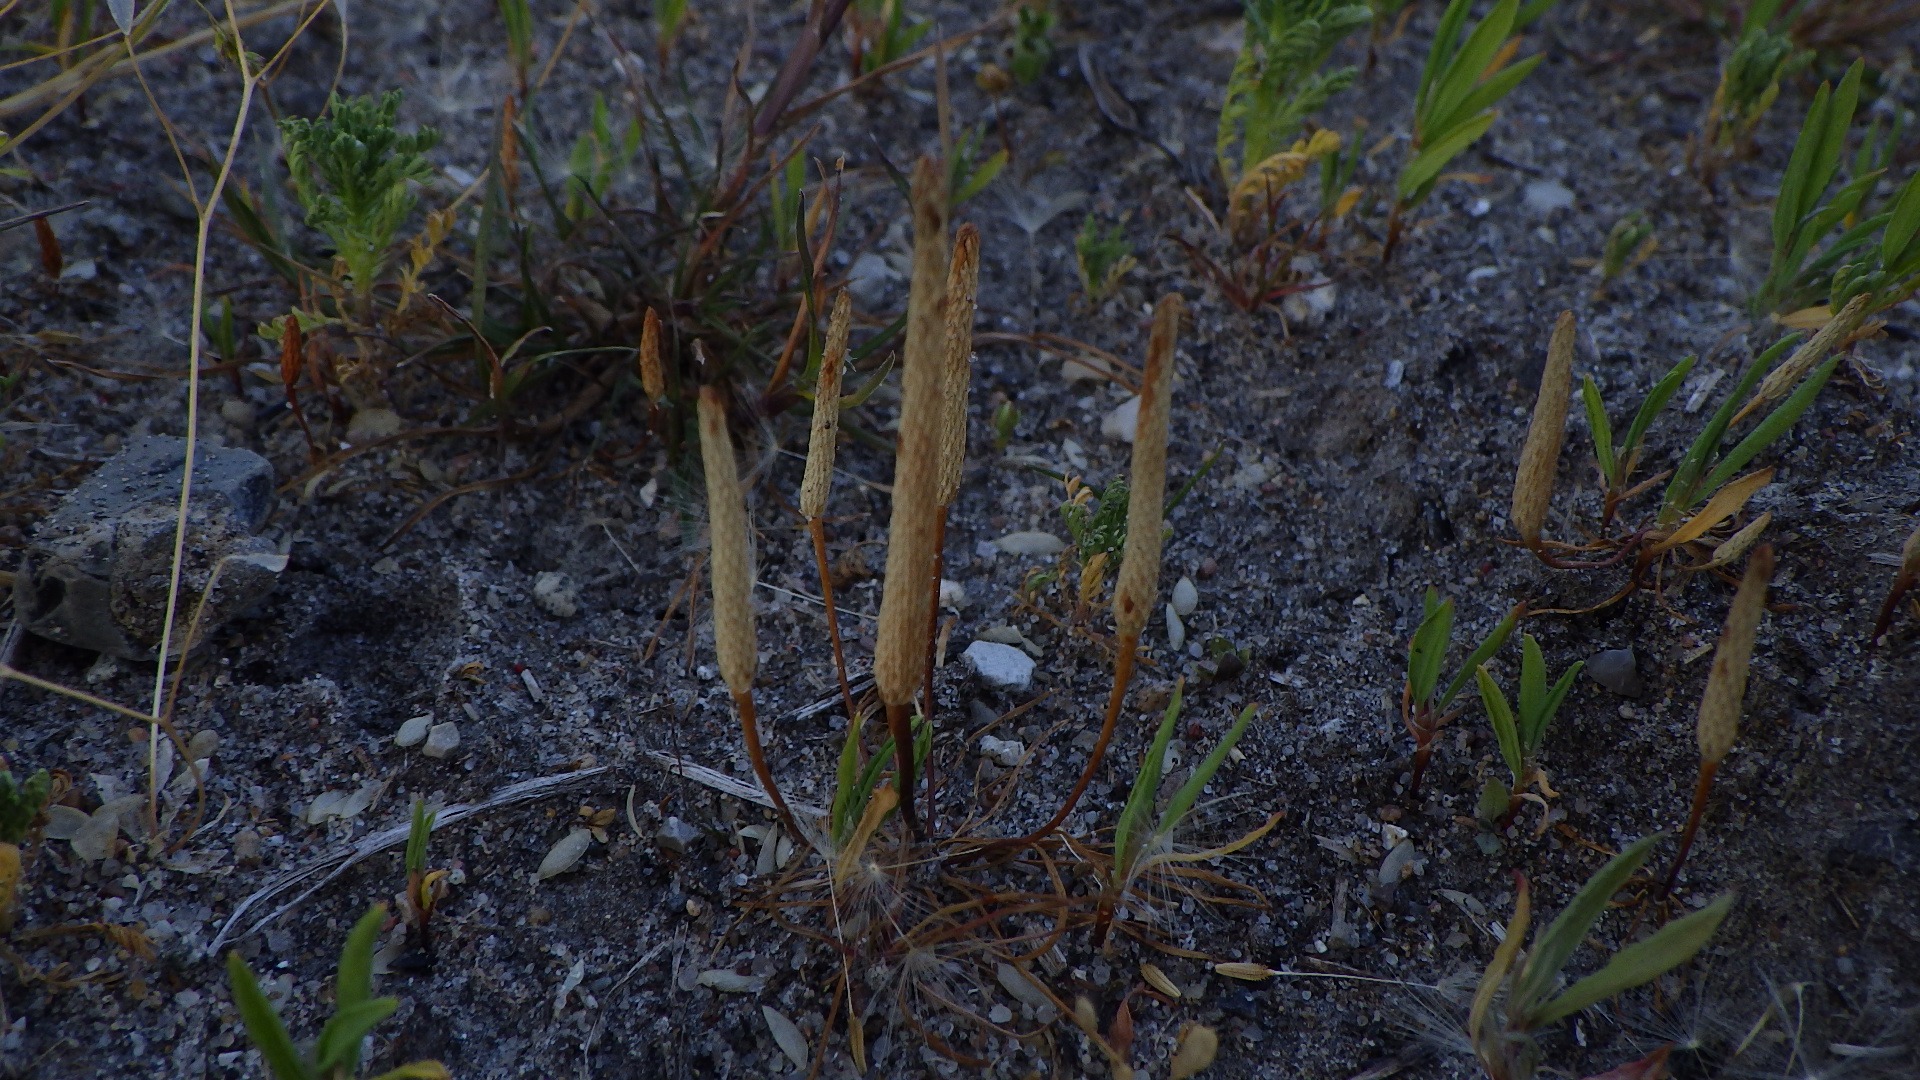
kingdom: Plantae
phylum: Tracheophyta
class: Magnoliopsida
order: Ranunculales
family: Ranunculaceae
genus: Myosurus
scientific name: Myosurus minimus
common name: Musehale
